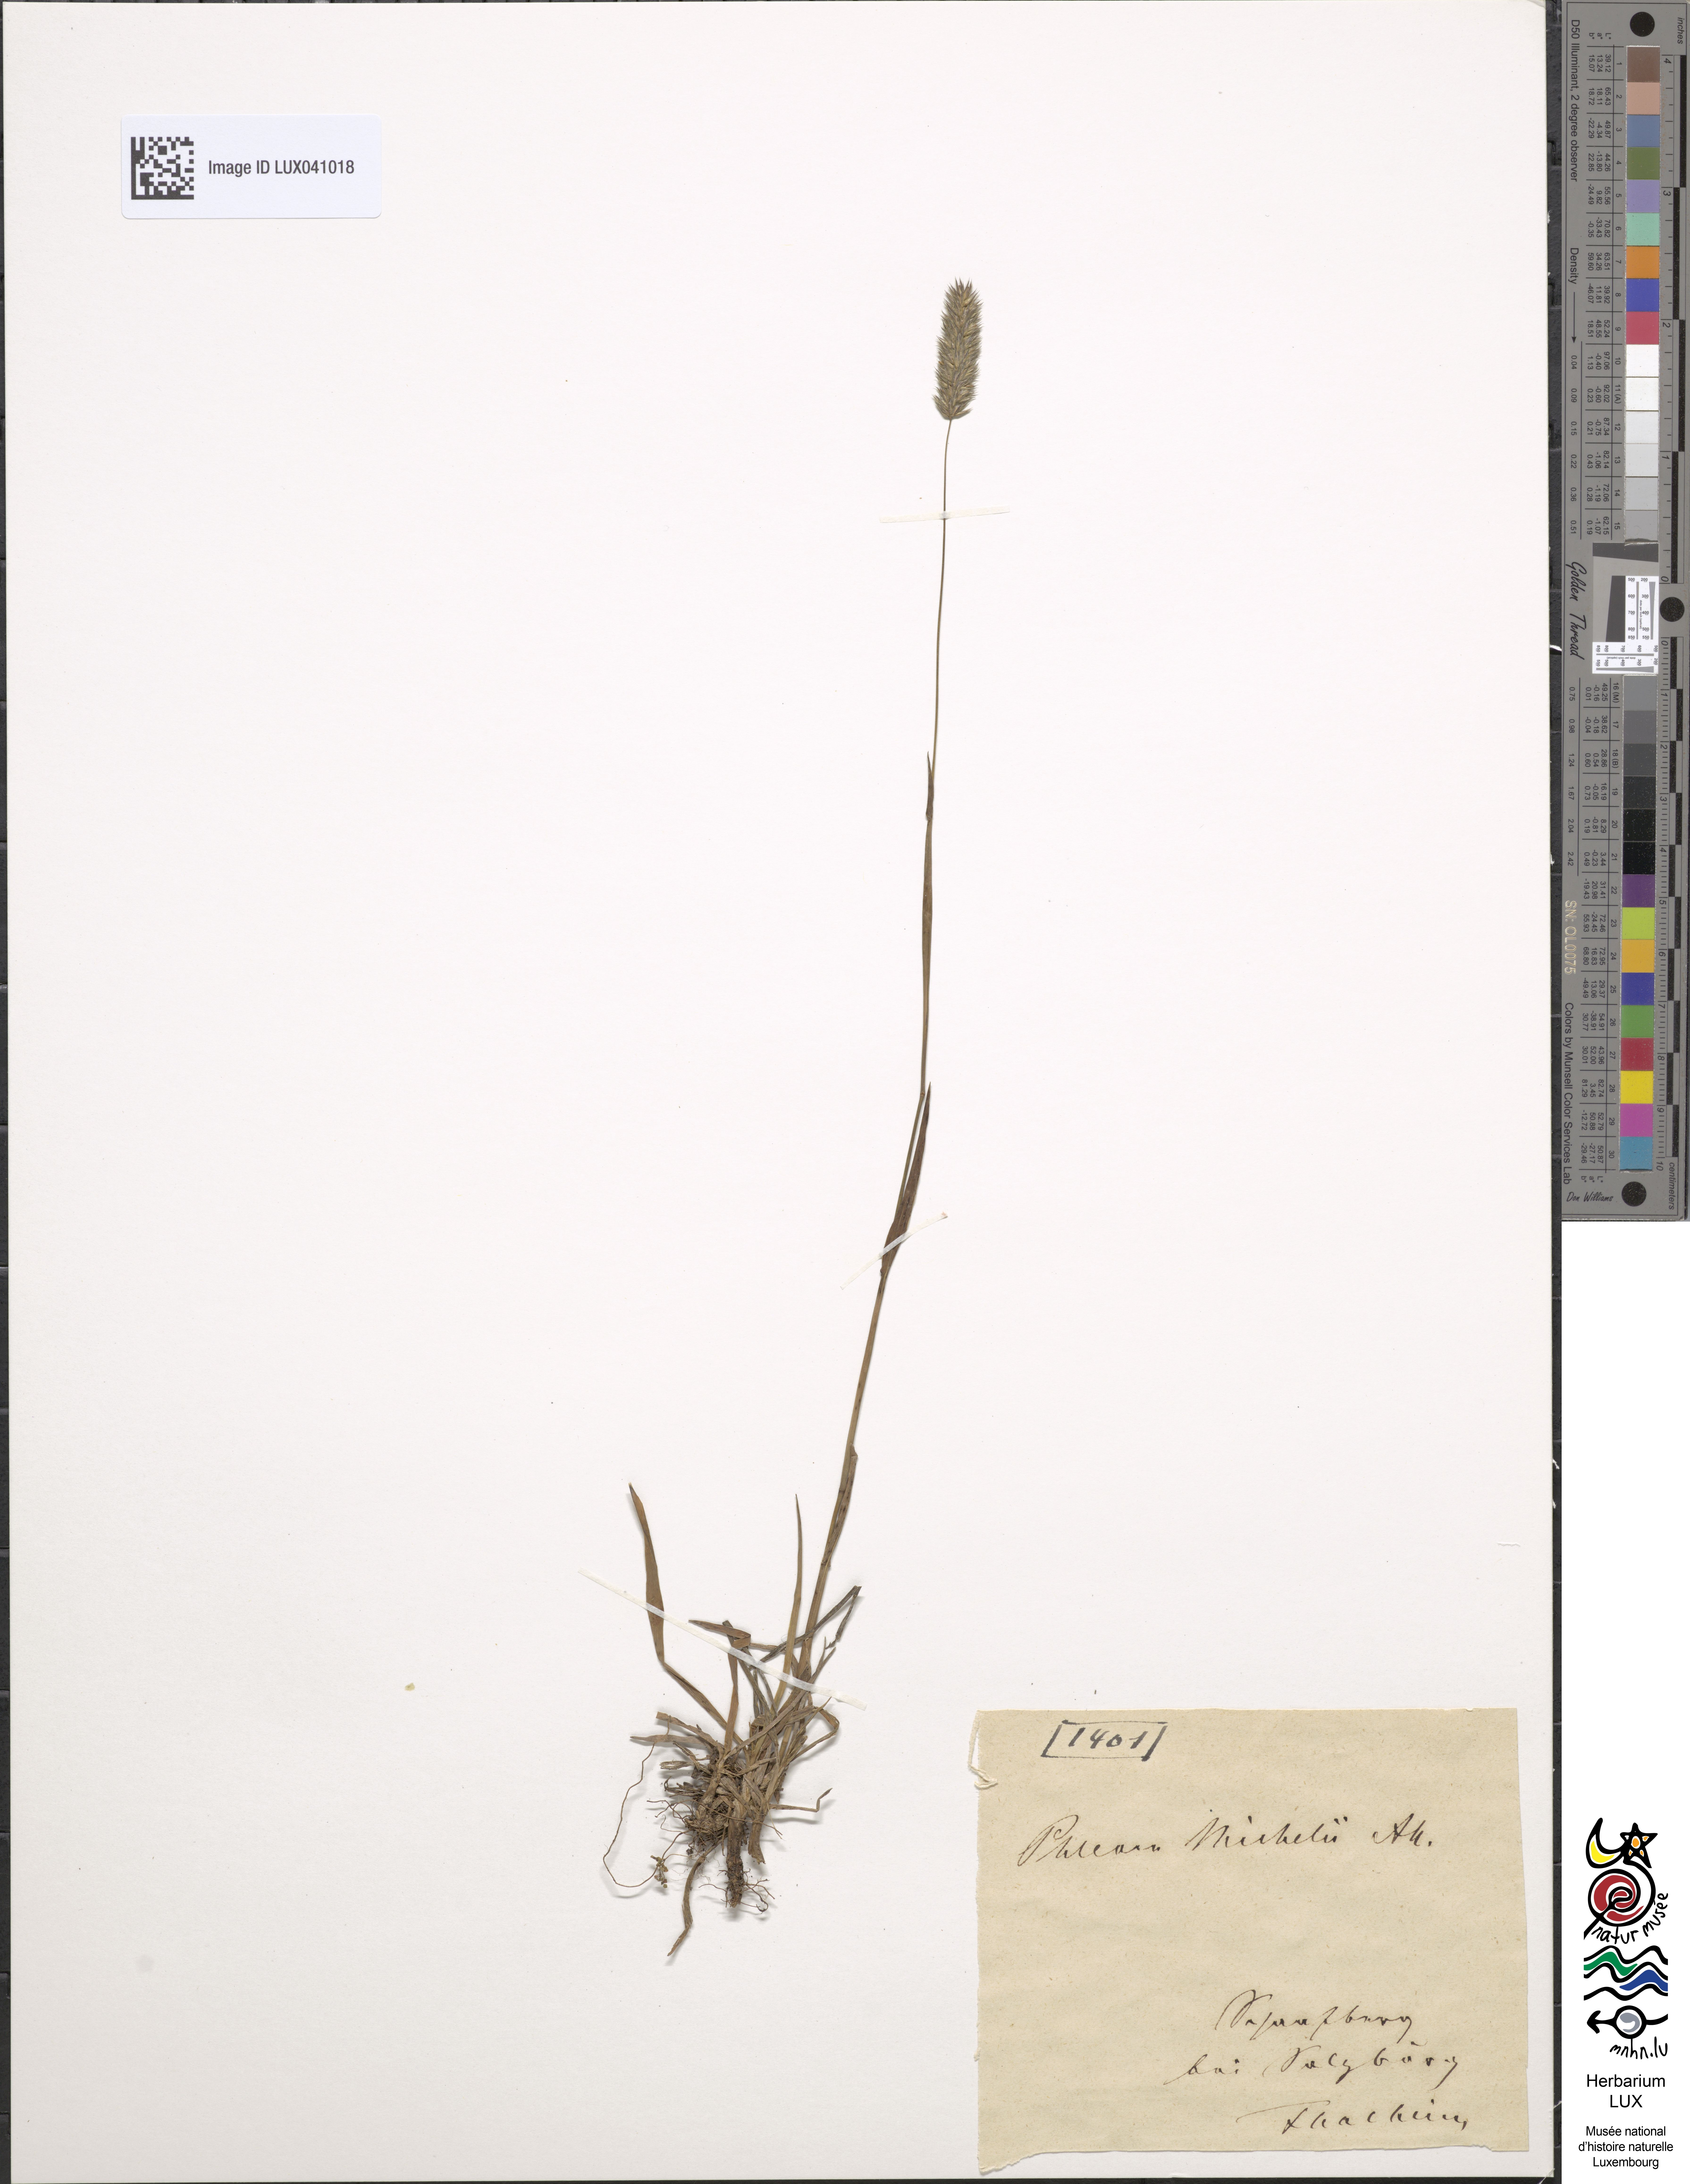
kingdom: Plantae
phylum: Tracheophyta
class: Liliopsida
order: Poales
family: Poaceae
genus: Phleum
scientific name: Phleum hirsutum
